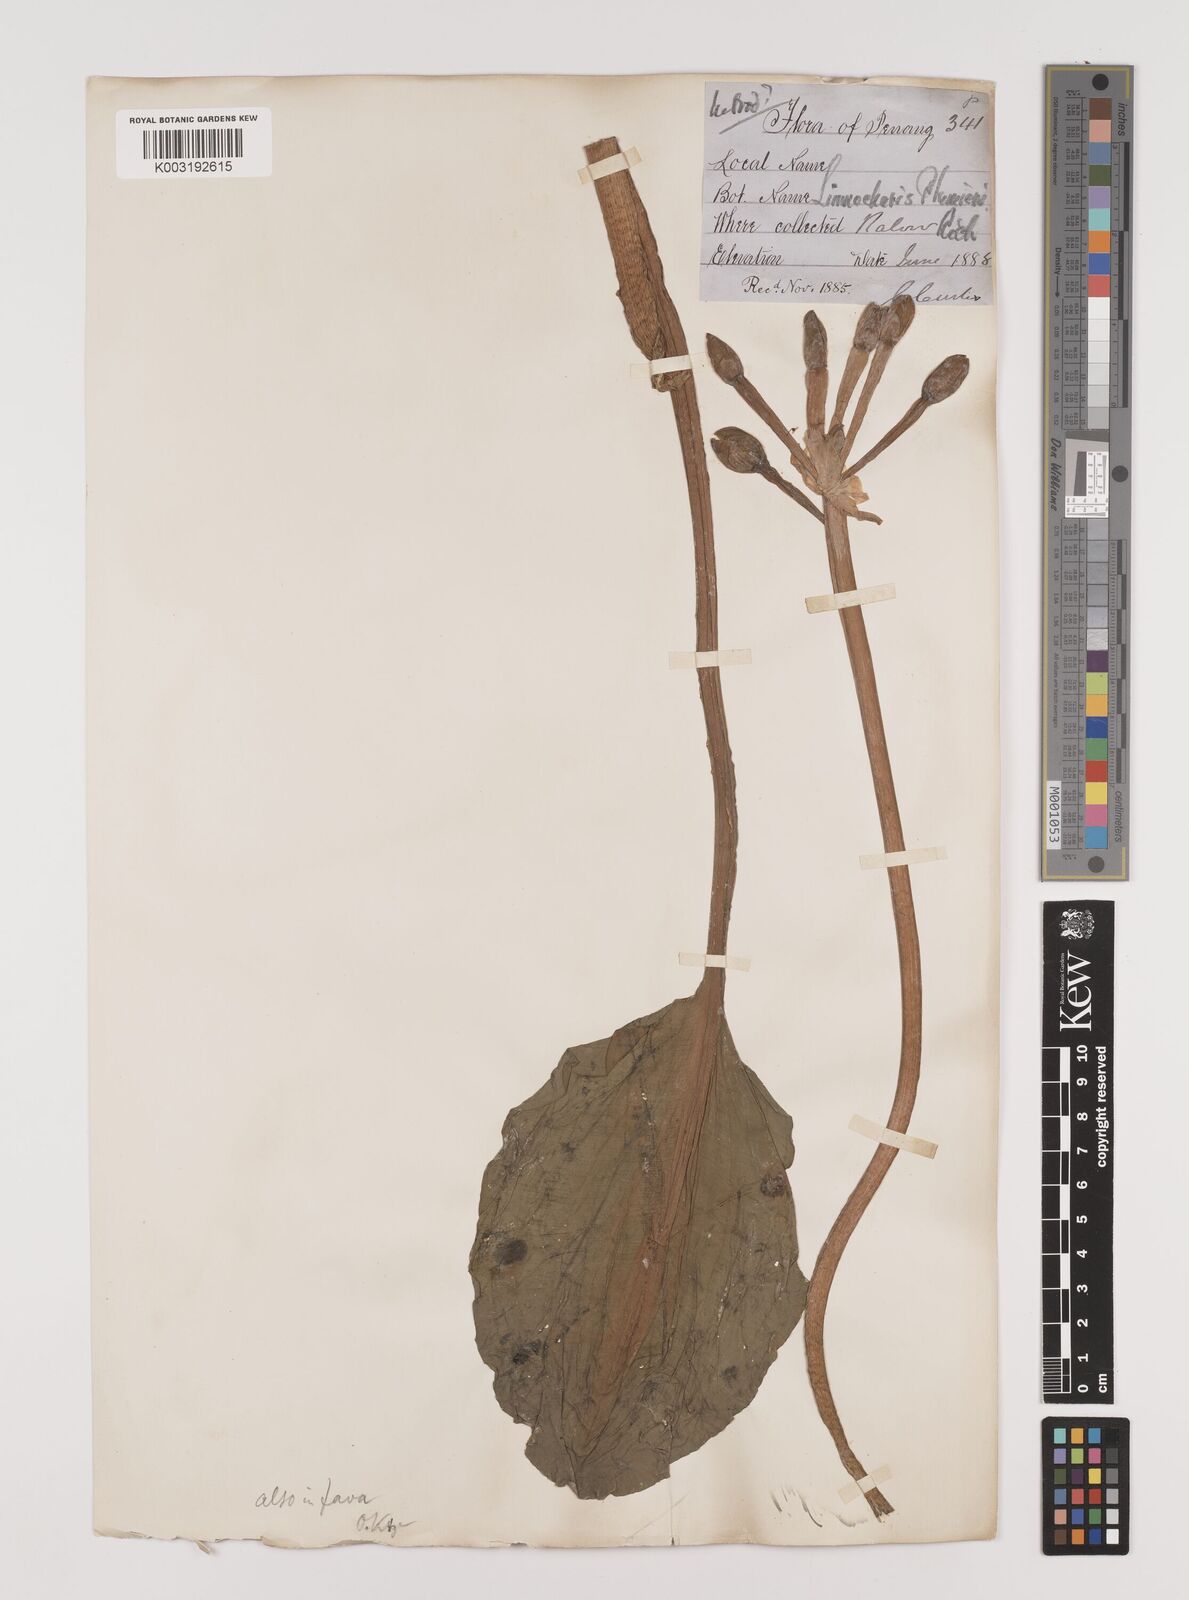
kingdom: Plantae
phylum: Tracheophyta
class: Liliopsida
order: Alismatales
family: Alismataceae
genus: Limnocharis
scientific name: Limnocharis flava
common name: Sawah-flower-rush
